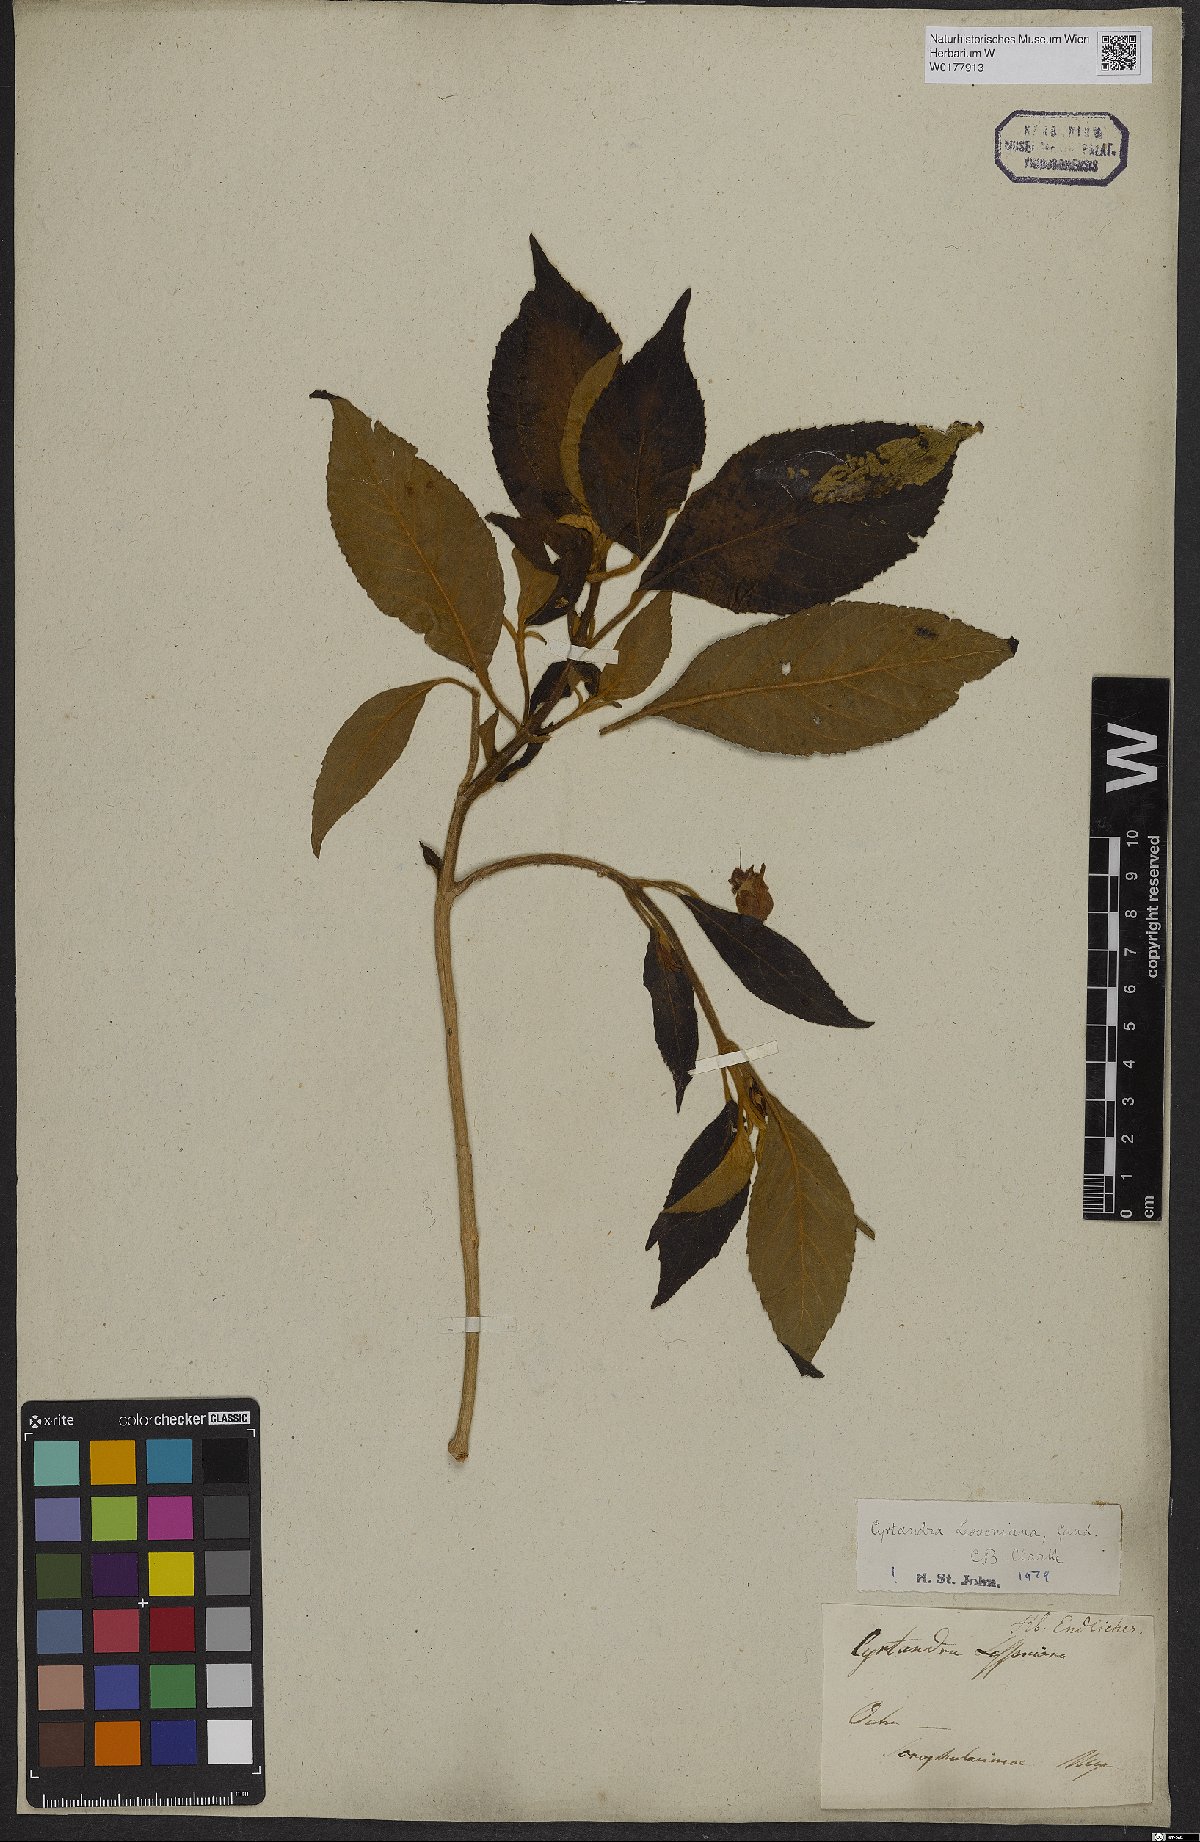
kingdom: Plantae
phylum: Tracheophyta
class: Magnoliopsida
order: Lamiales
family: Gesneriaceae
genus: Cyrtandra
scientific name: Cyrtandra lessoniana
